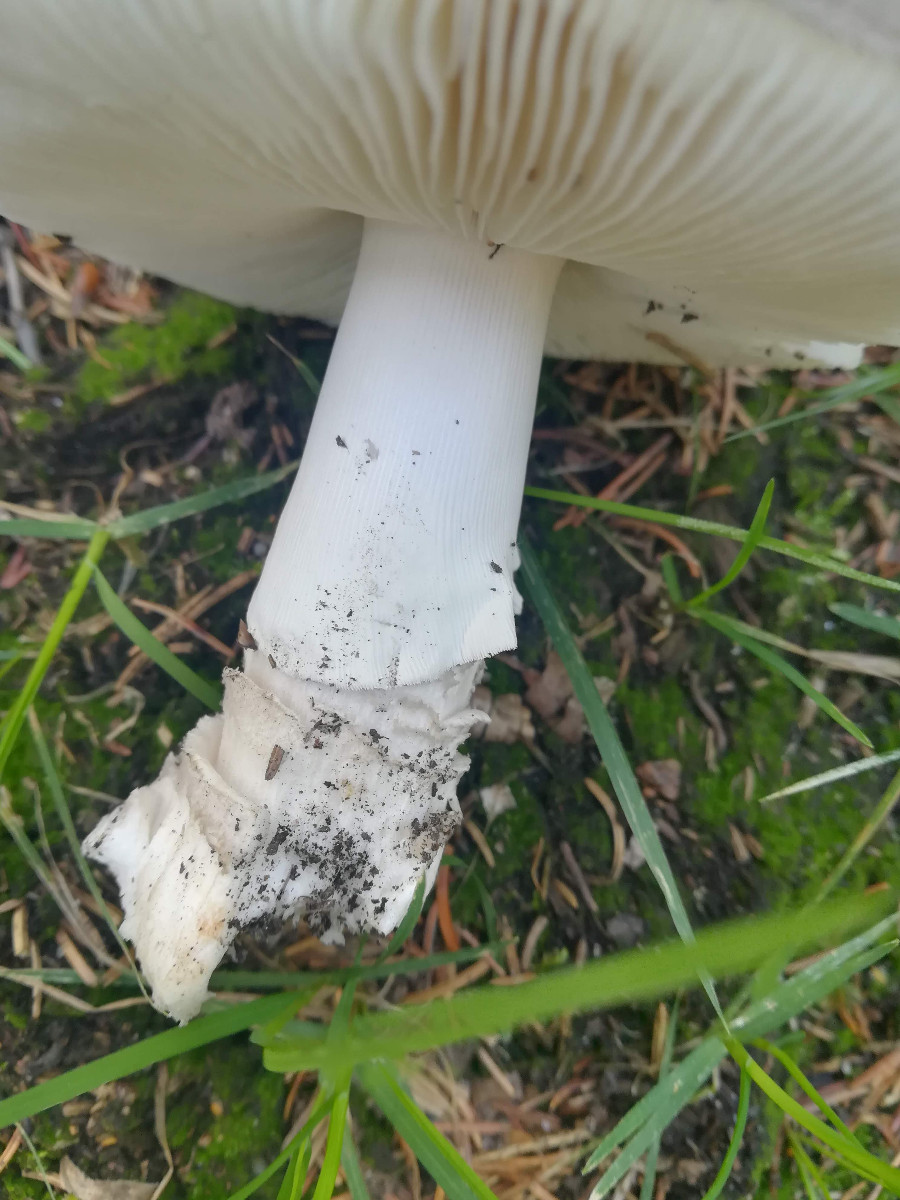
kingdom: Fungi
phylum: Basidiomycota
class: Agaricomycetes
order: Agaricales
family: Amanitaceae
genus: Amanita
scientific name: Amanita
